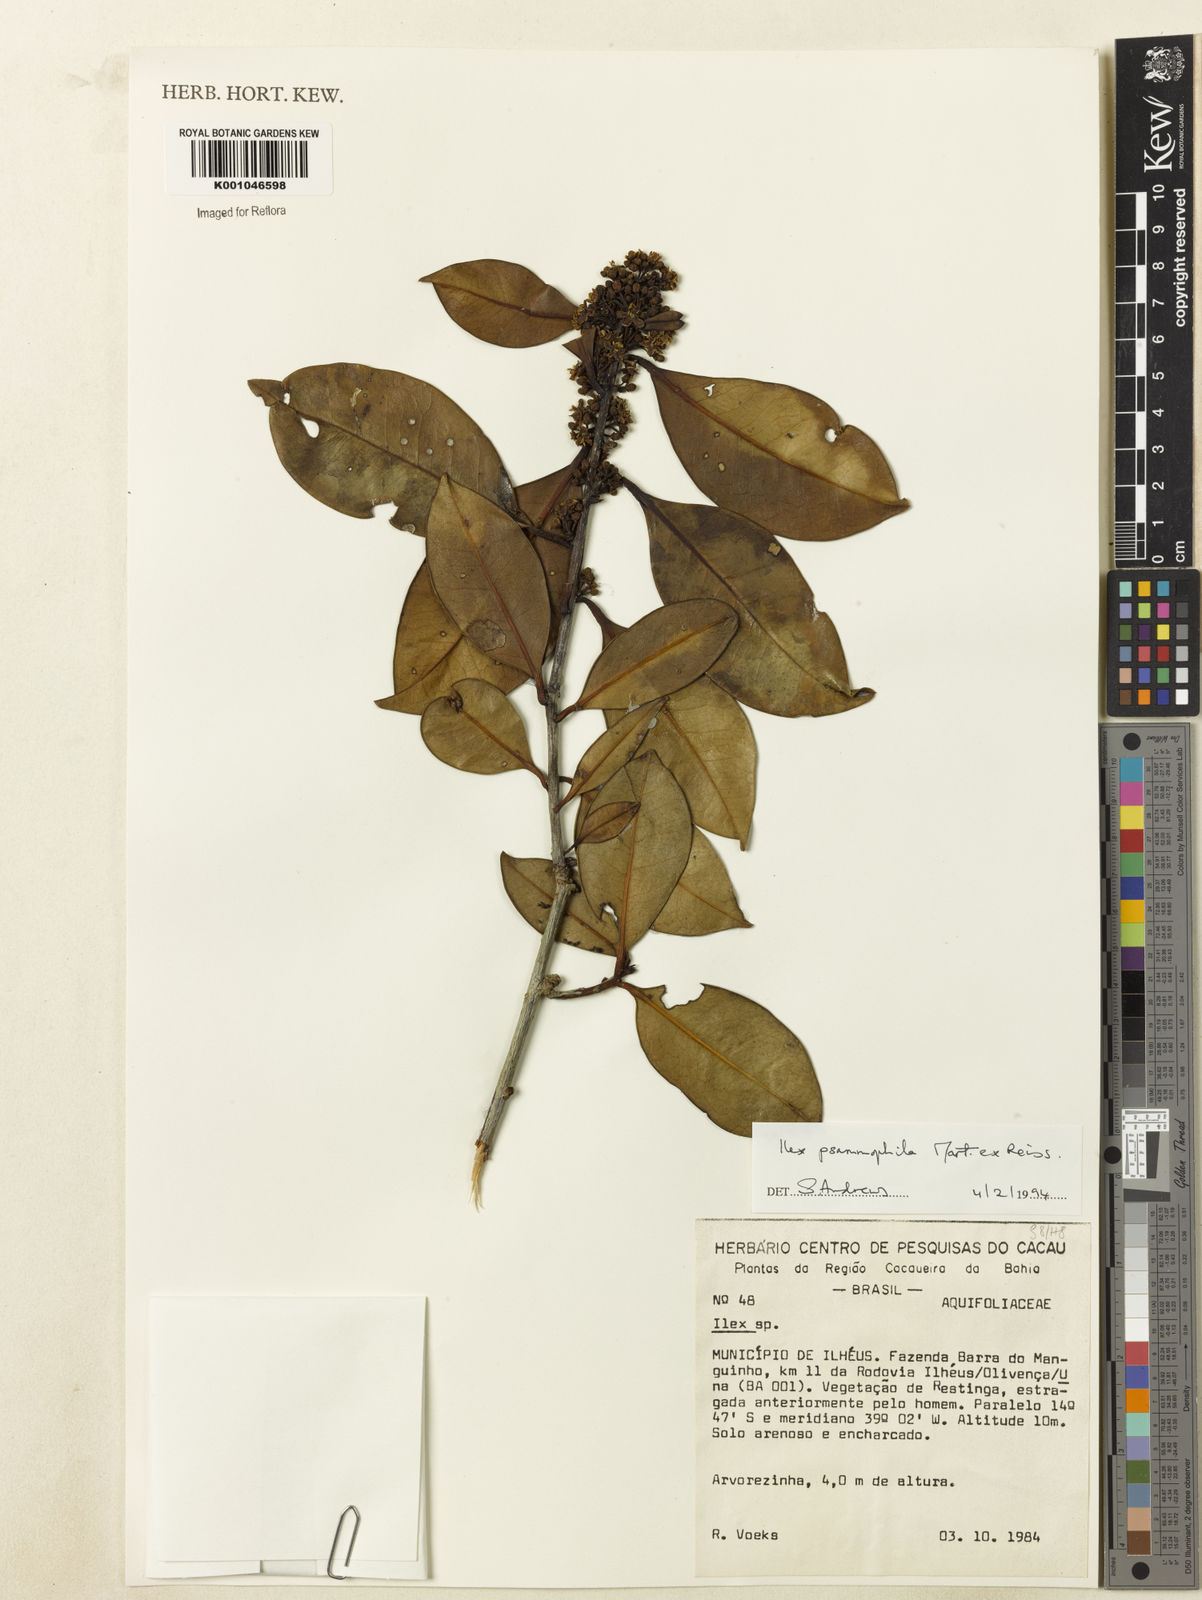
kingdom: Plantae
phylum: Tracheophyta
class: Magnoliopsida
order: Aquifoliales
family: Aquifoliaceae
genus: Ilex
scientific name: Ilex psammophila
